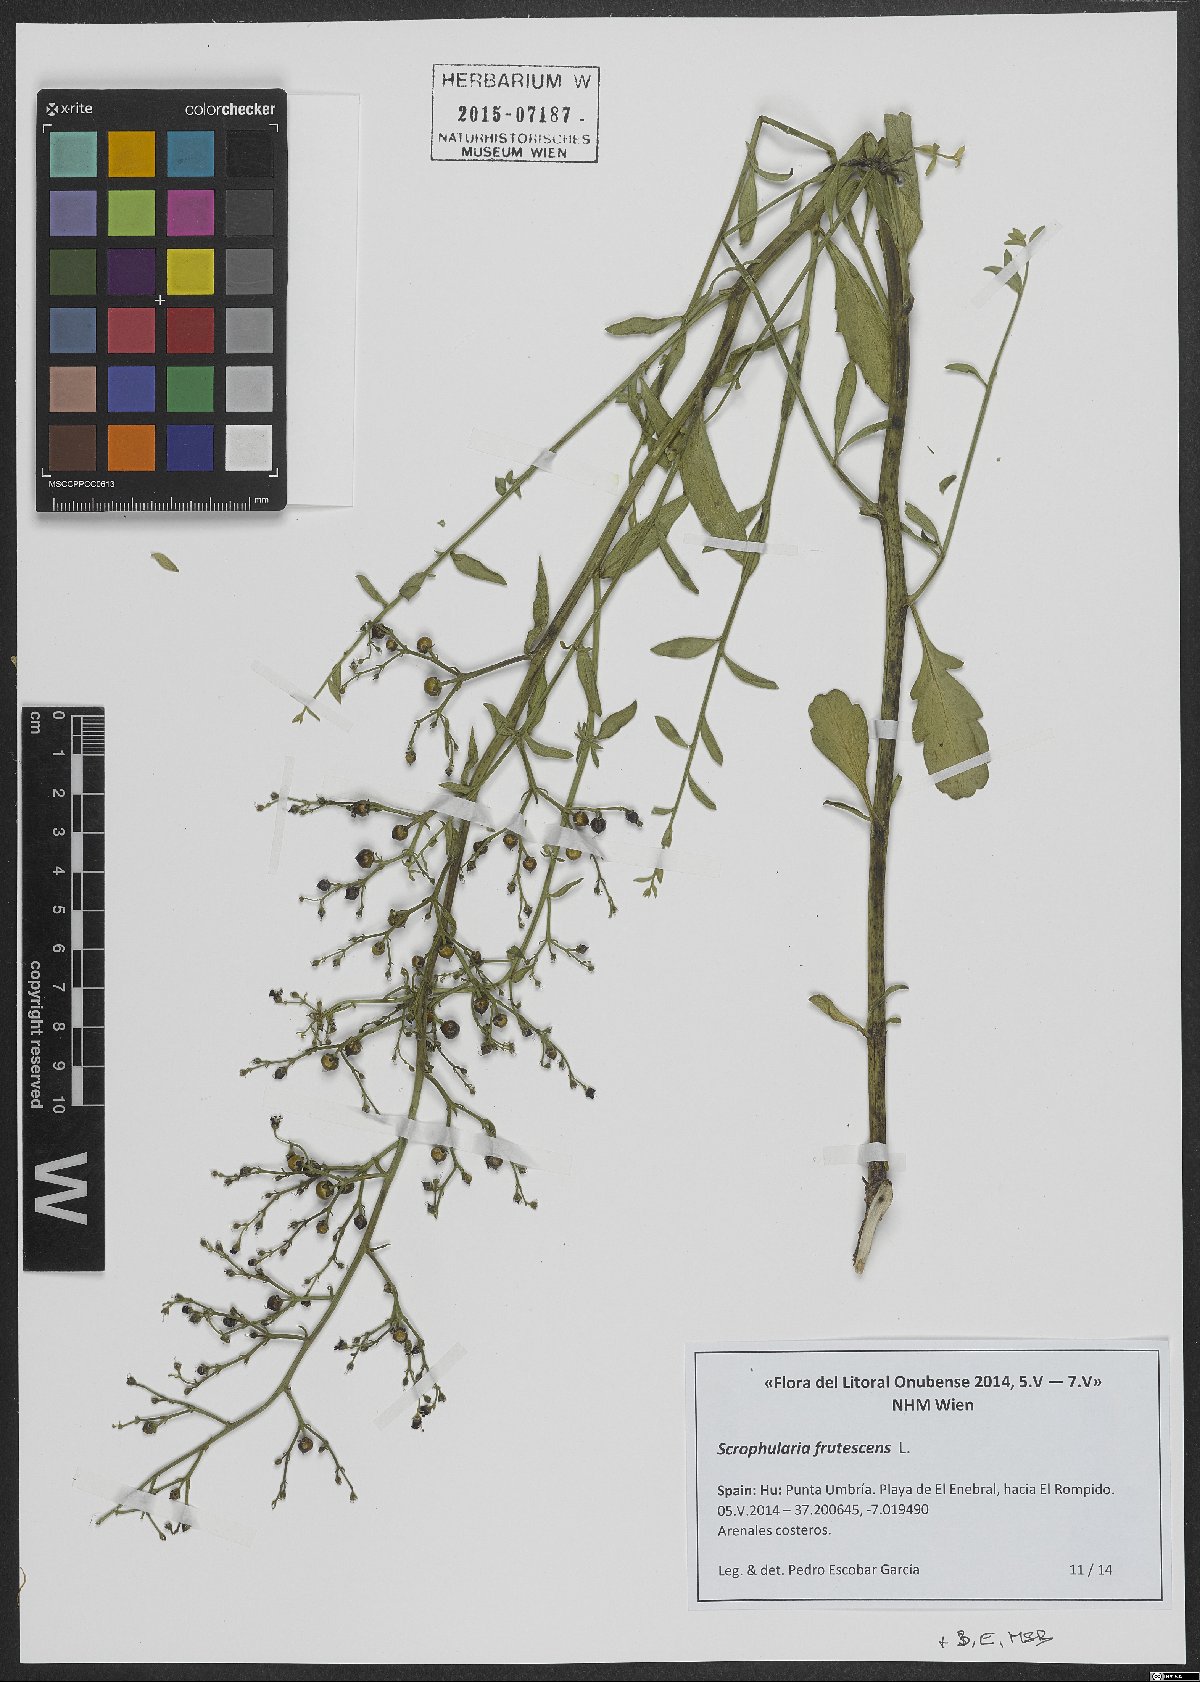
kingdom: Plantae
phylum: Tracheophyta
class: Magnoliopsida
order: Lamiales
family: Scrophulariaceae
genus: Scrophularia
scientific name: Scrophularia frutescens
